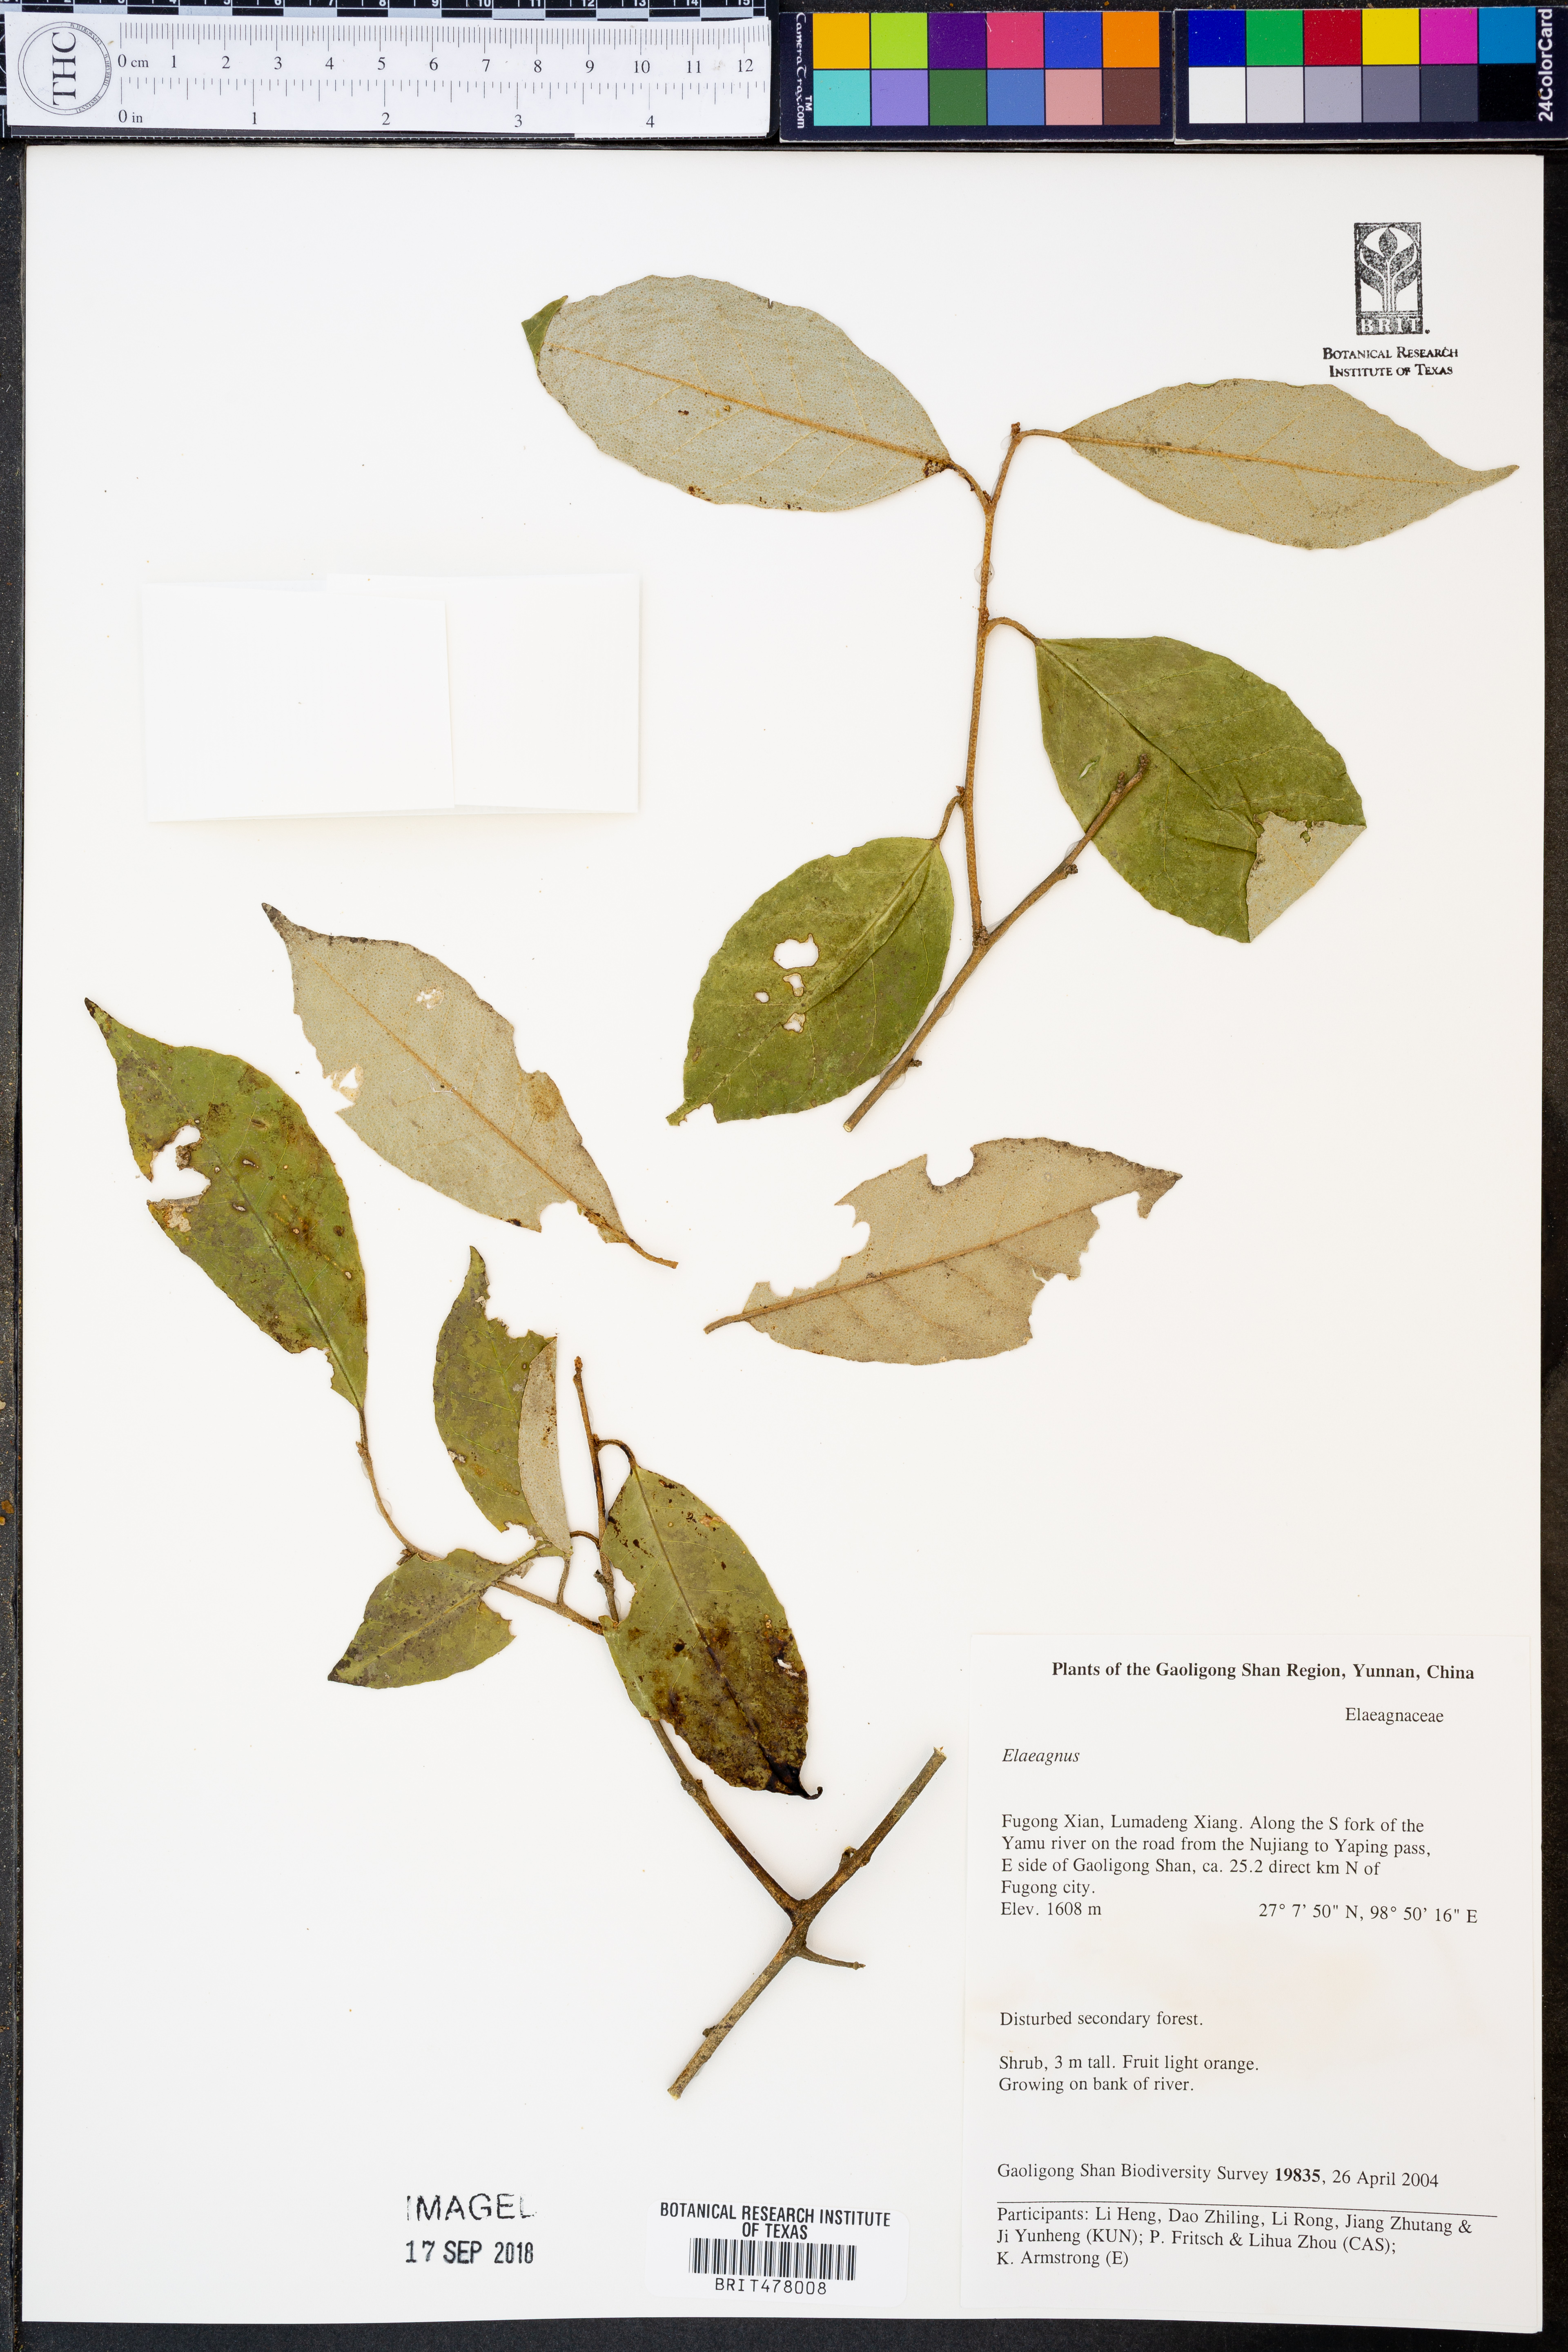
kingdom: Plantae
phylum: Tracheophyta
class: Magnoliopsida
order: Rosales
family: Elaeagnaceae
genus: Elaeagnus
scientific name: Elaeagnus
